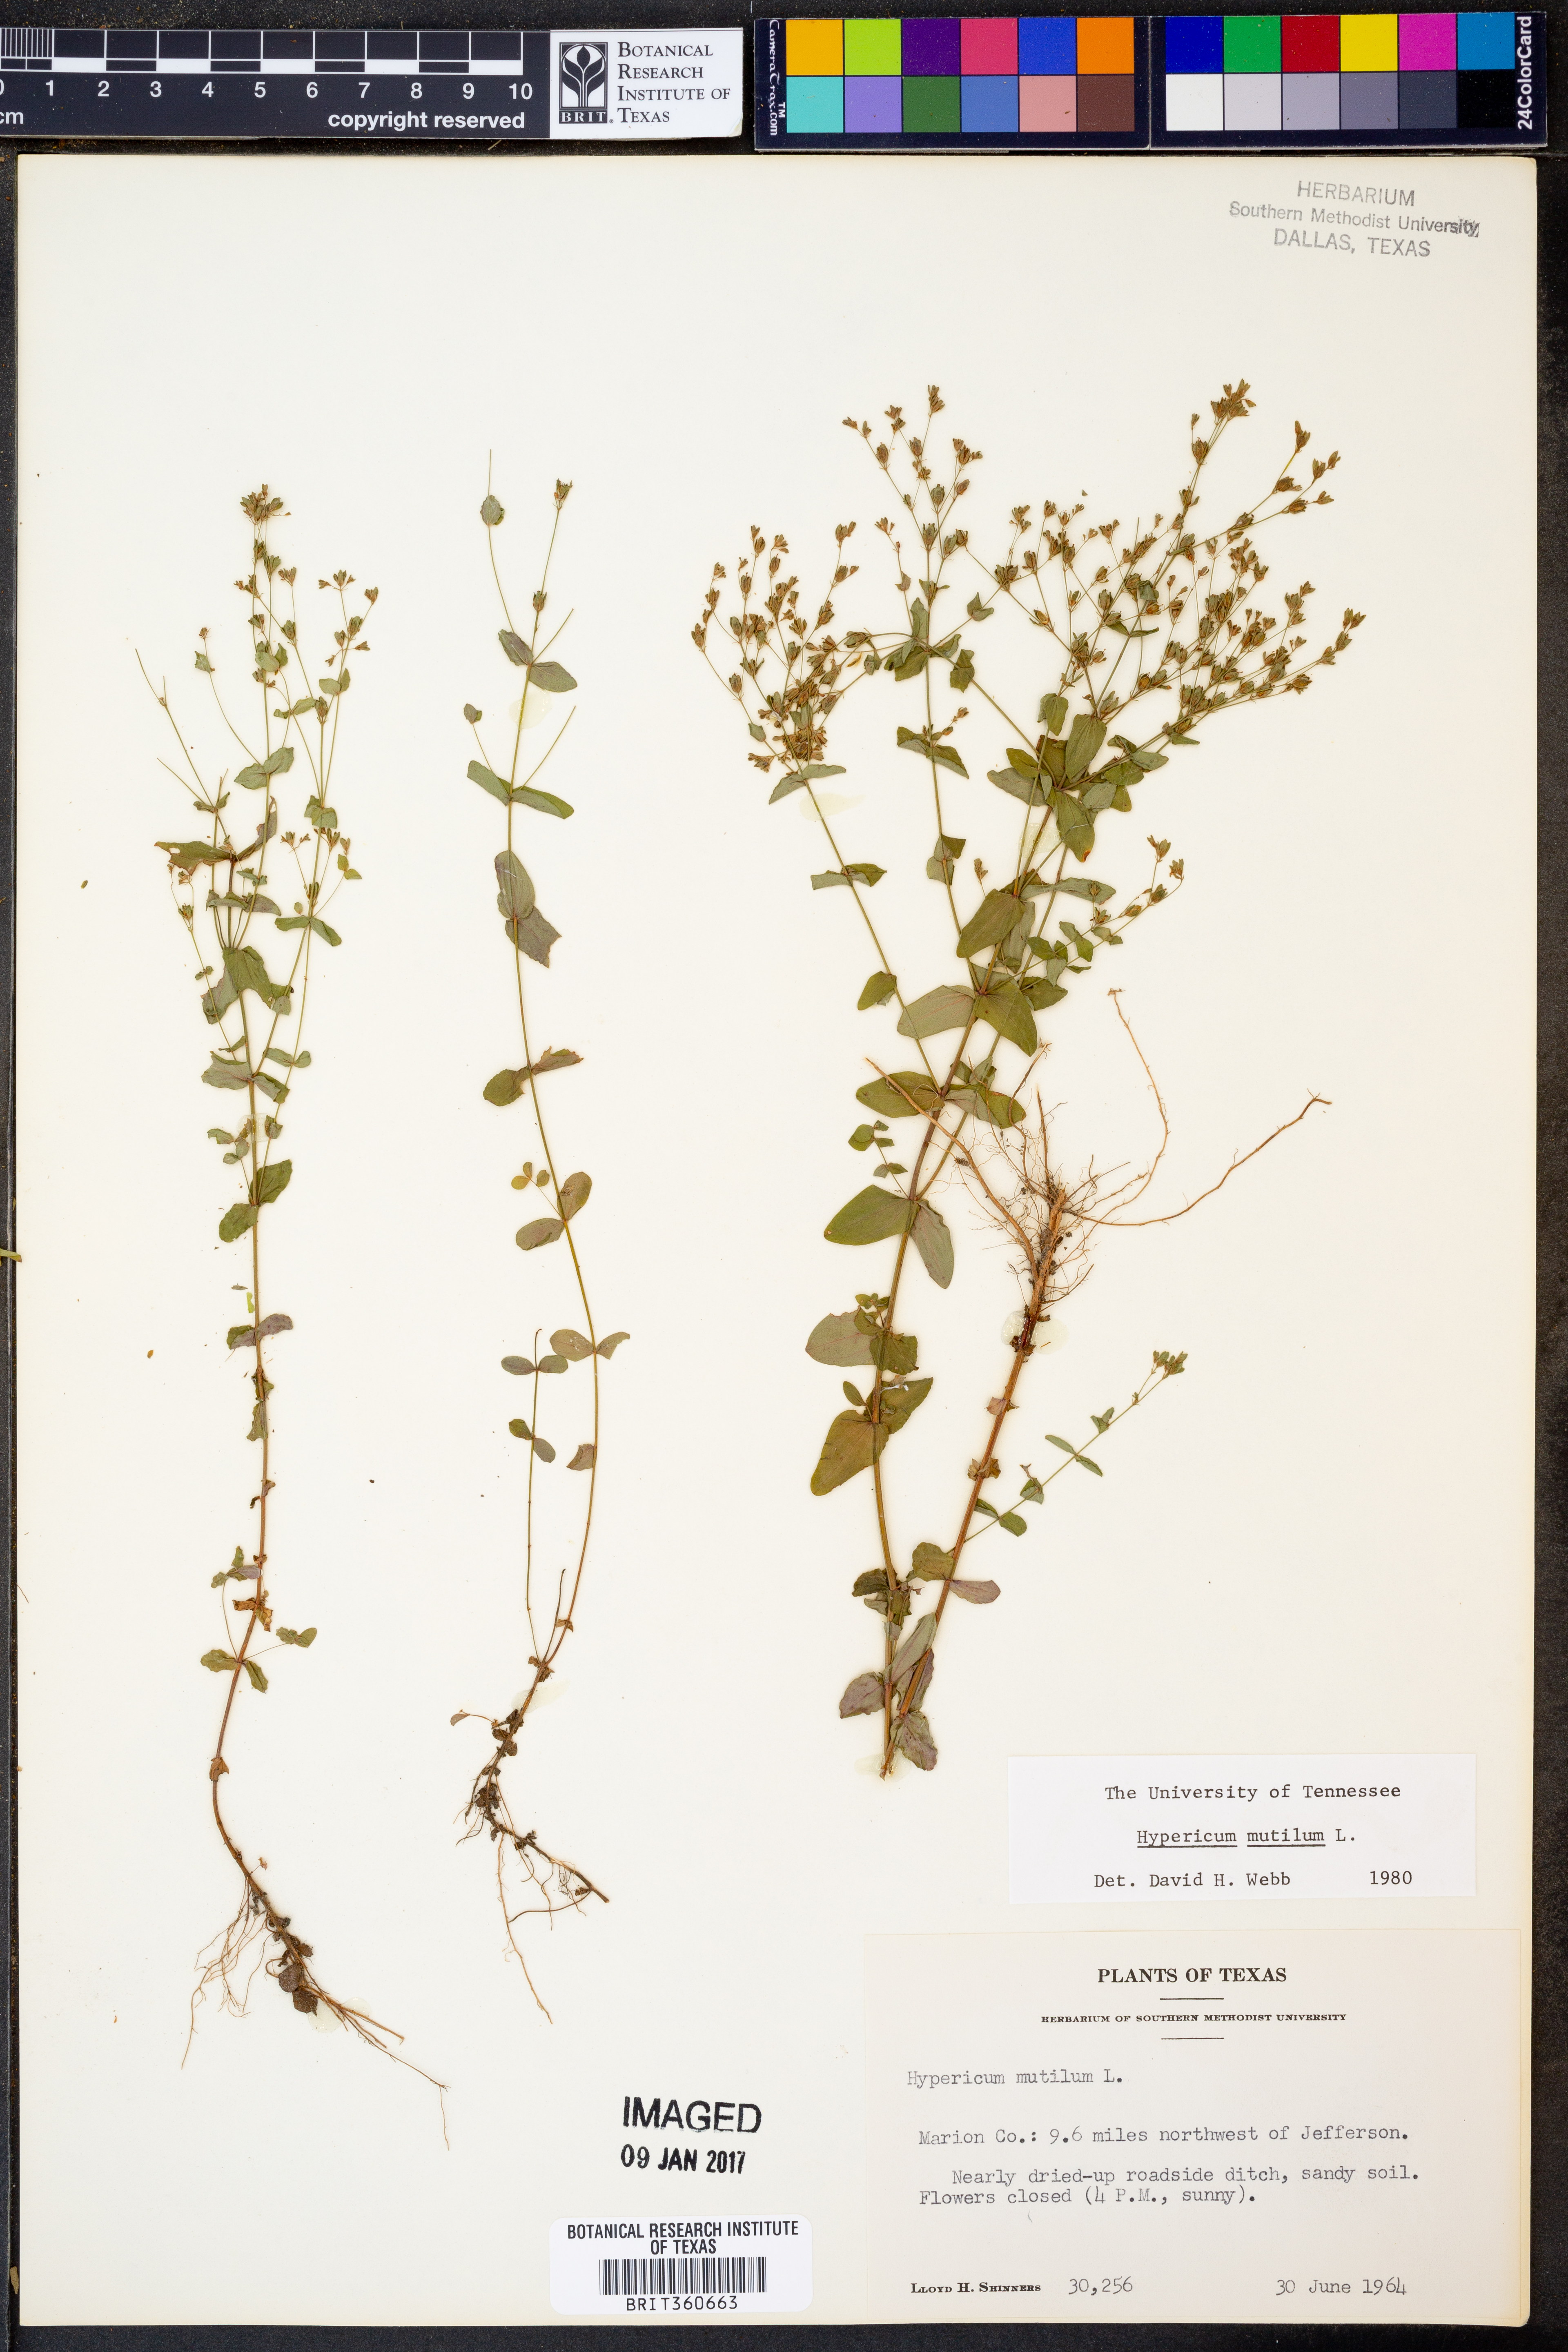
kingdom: Plantae
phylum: Tracheophyta
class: Magnoliopsida
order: Malpighiales
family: Hypericaceae
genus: Hypericum
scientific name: Hypericum mutilum
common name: Dwarf st. john's-wort
